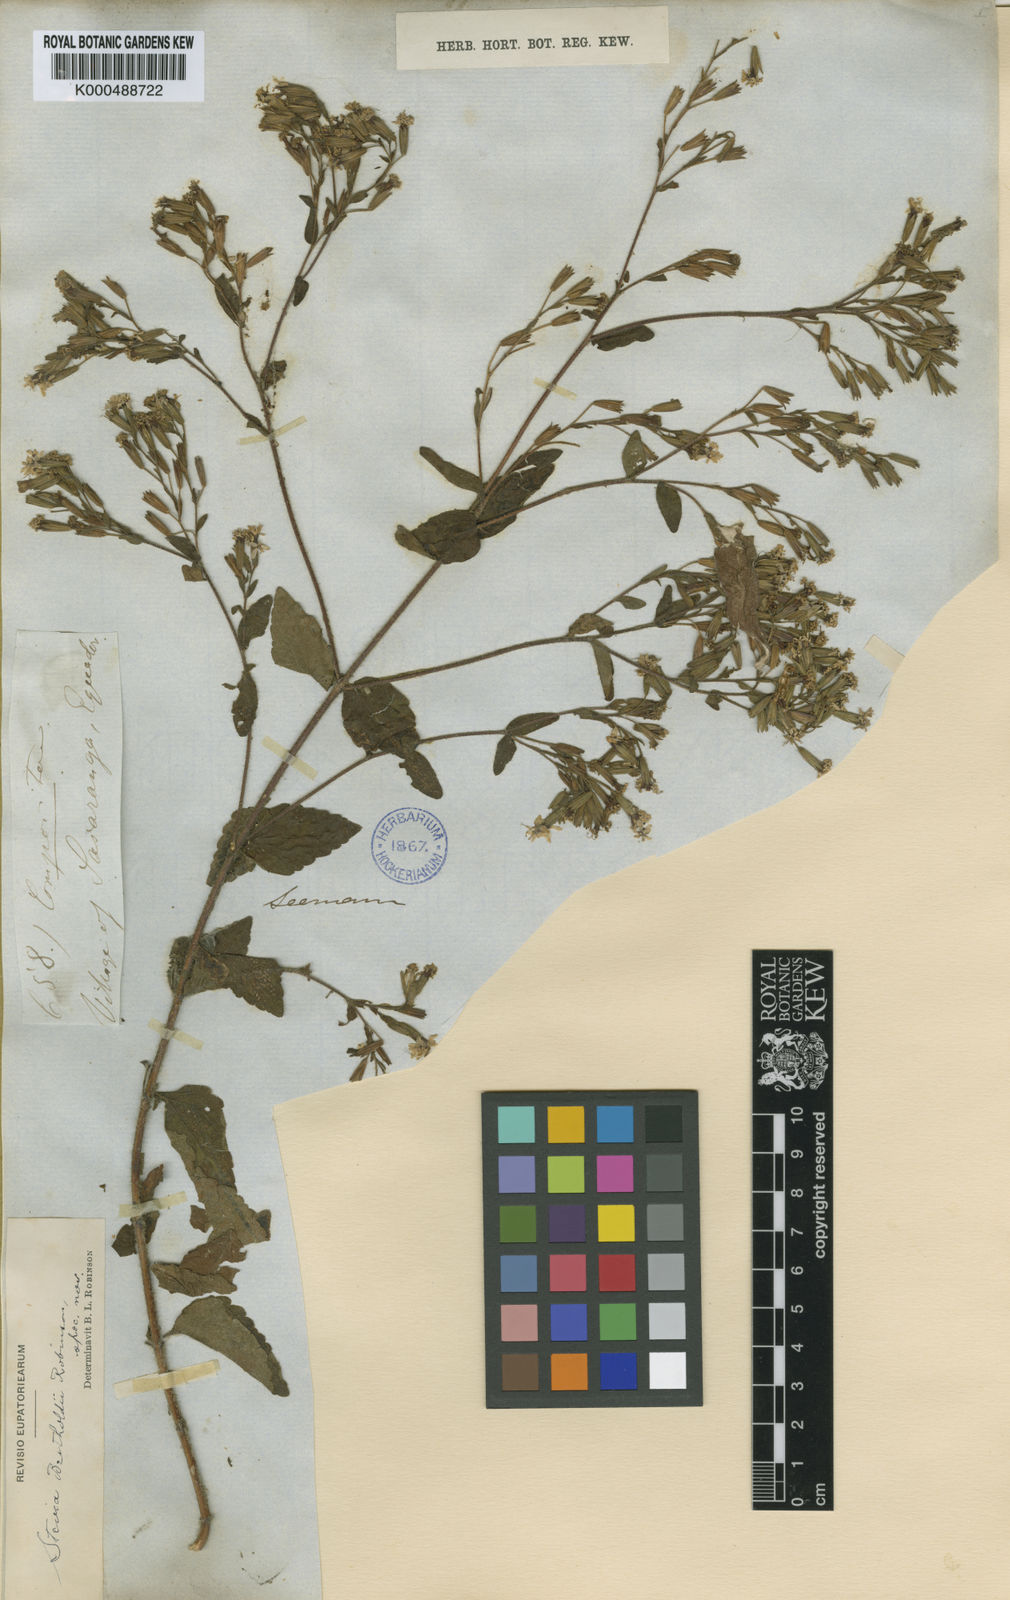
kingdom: Plantae
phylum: Tracheophyta
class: Magnoliopsida
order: Asterales
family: Asteraceae
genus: Stevia
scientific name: Stevia bertholdii
